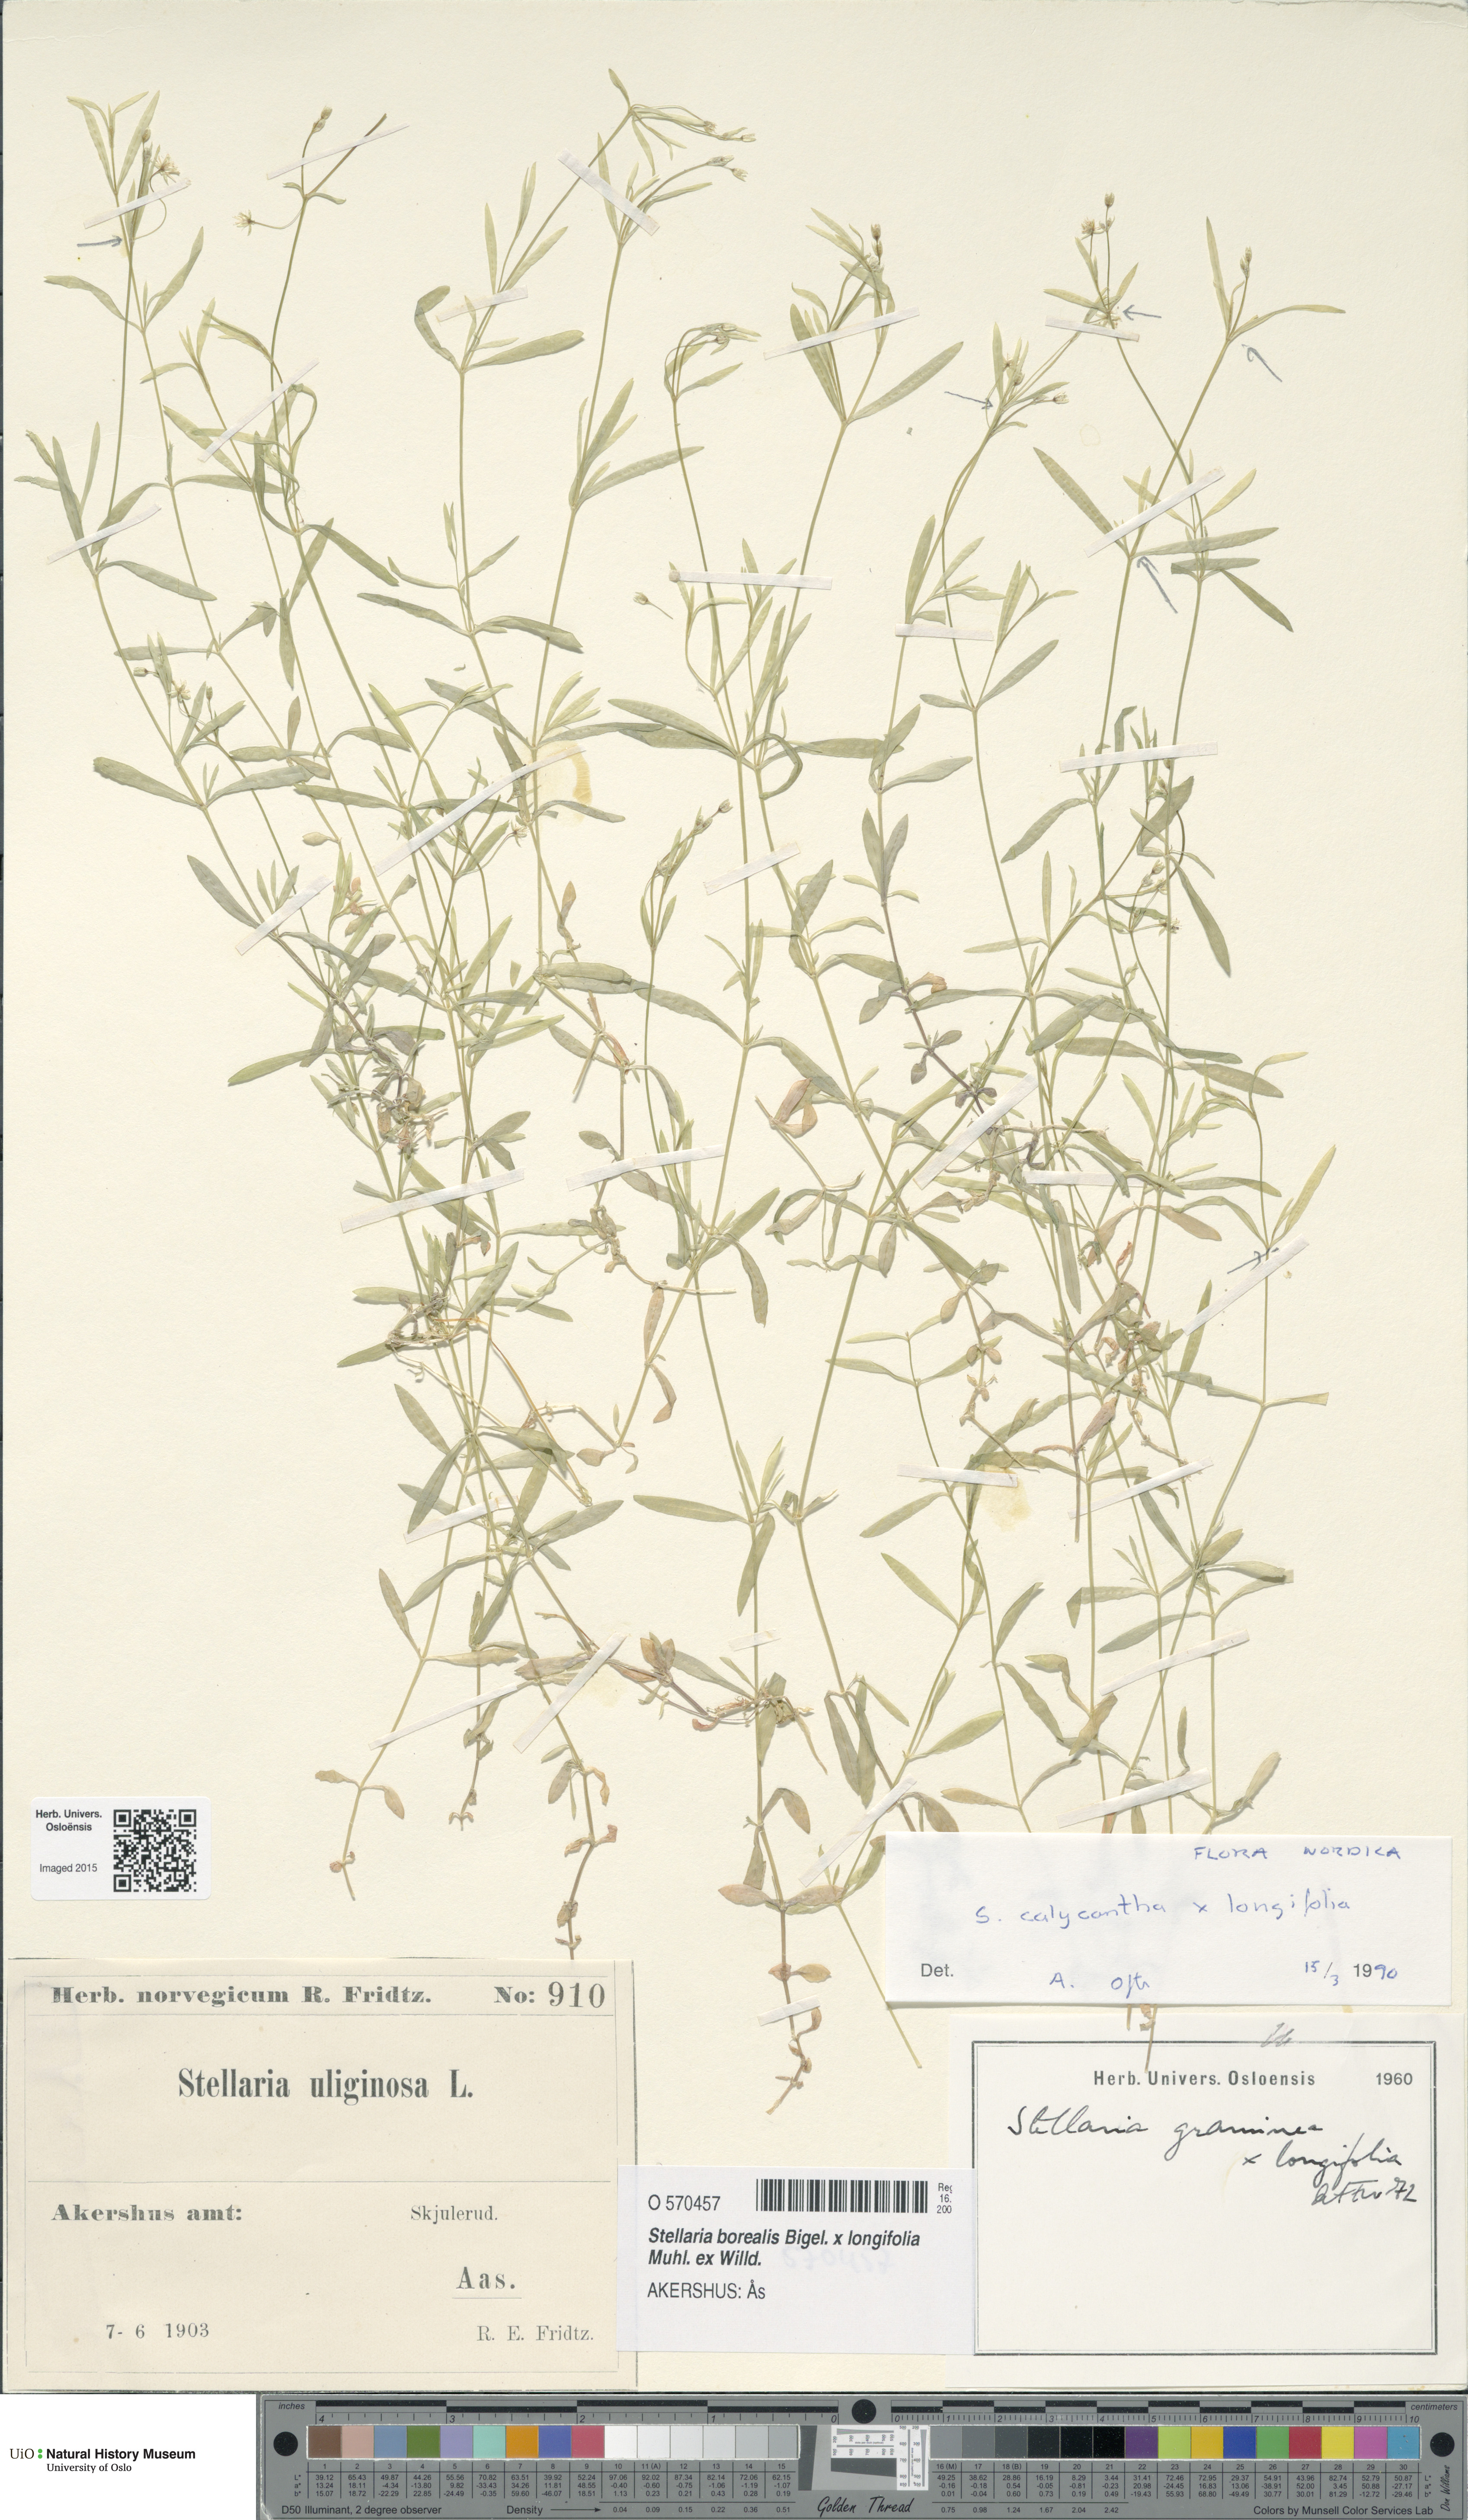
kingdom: Plantae
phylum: Tracheophyta
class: Magnoliopsida
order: Caryophyllales
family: Caryophyllaceae
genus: Stellaria
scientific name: Stellaria
